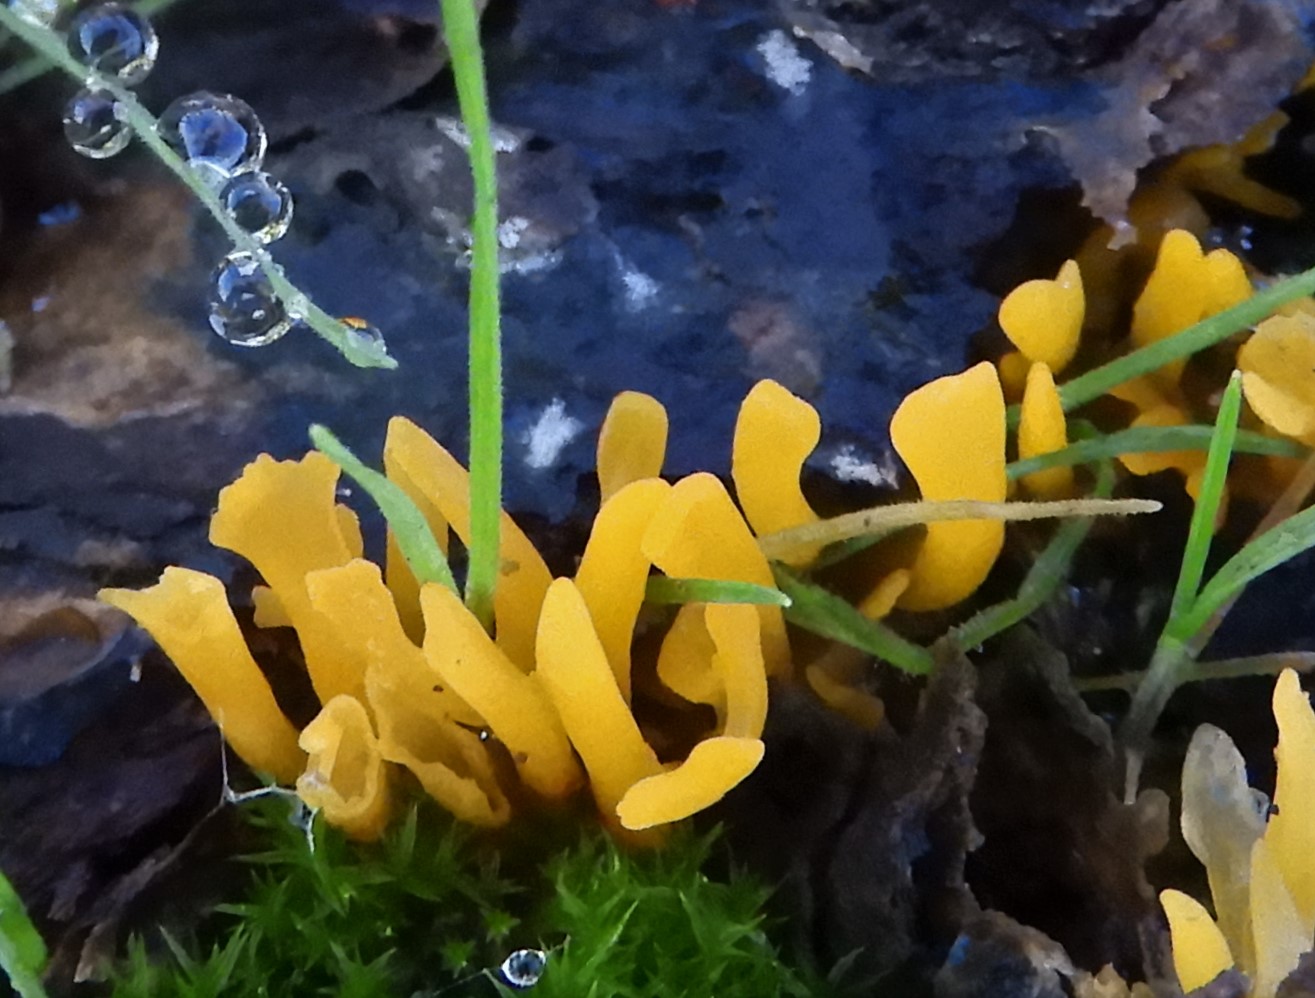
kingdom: Fungi
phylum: Basidiomycota
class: Dacrymycetes
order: Dacrymycetales
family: Dacrymycetaceae
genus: Calocera
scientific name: Calocera viscosa
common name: almindelig guldgaffel
